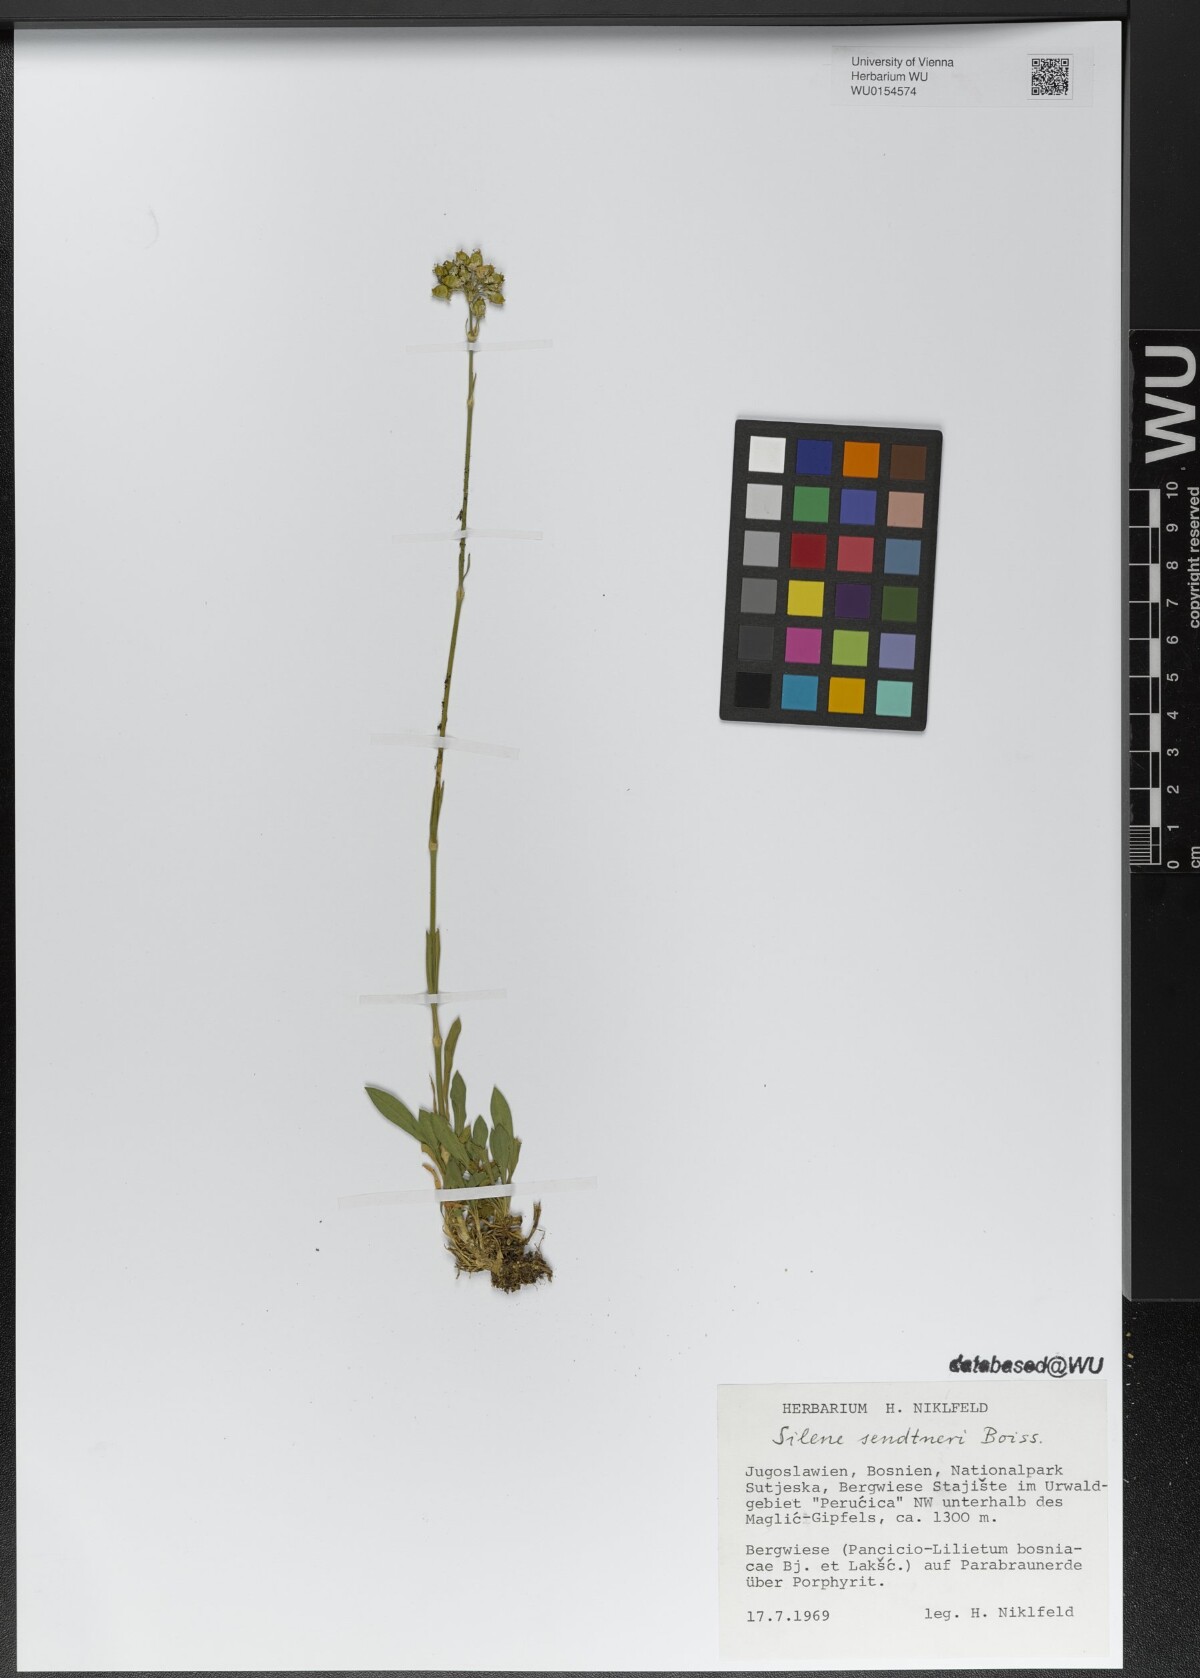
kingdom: Plantae
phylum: Tracheophyta
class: Magnoliopsida
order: Caryophyllales
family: Caryophyllaceae
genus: Silene
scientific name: Silene sendtneri
